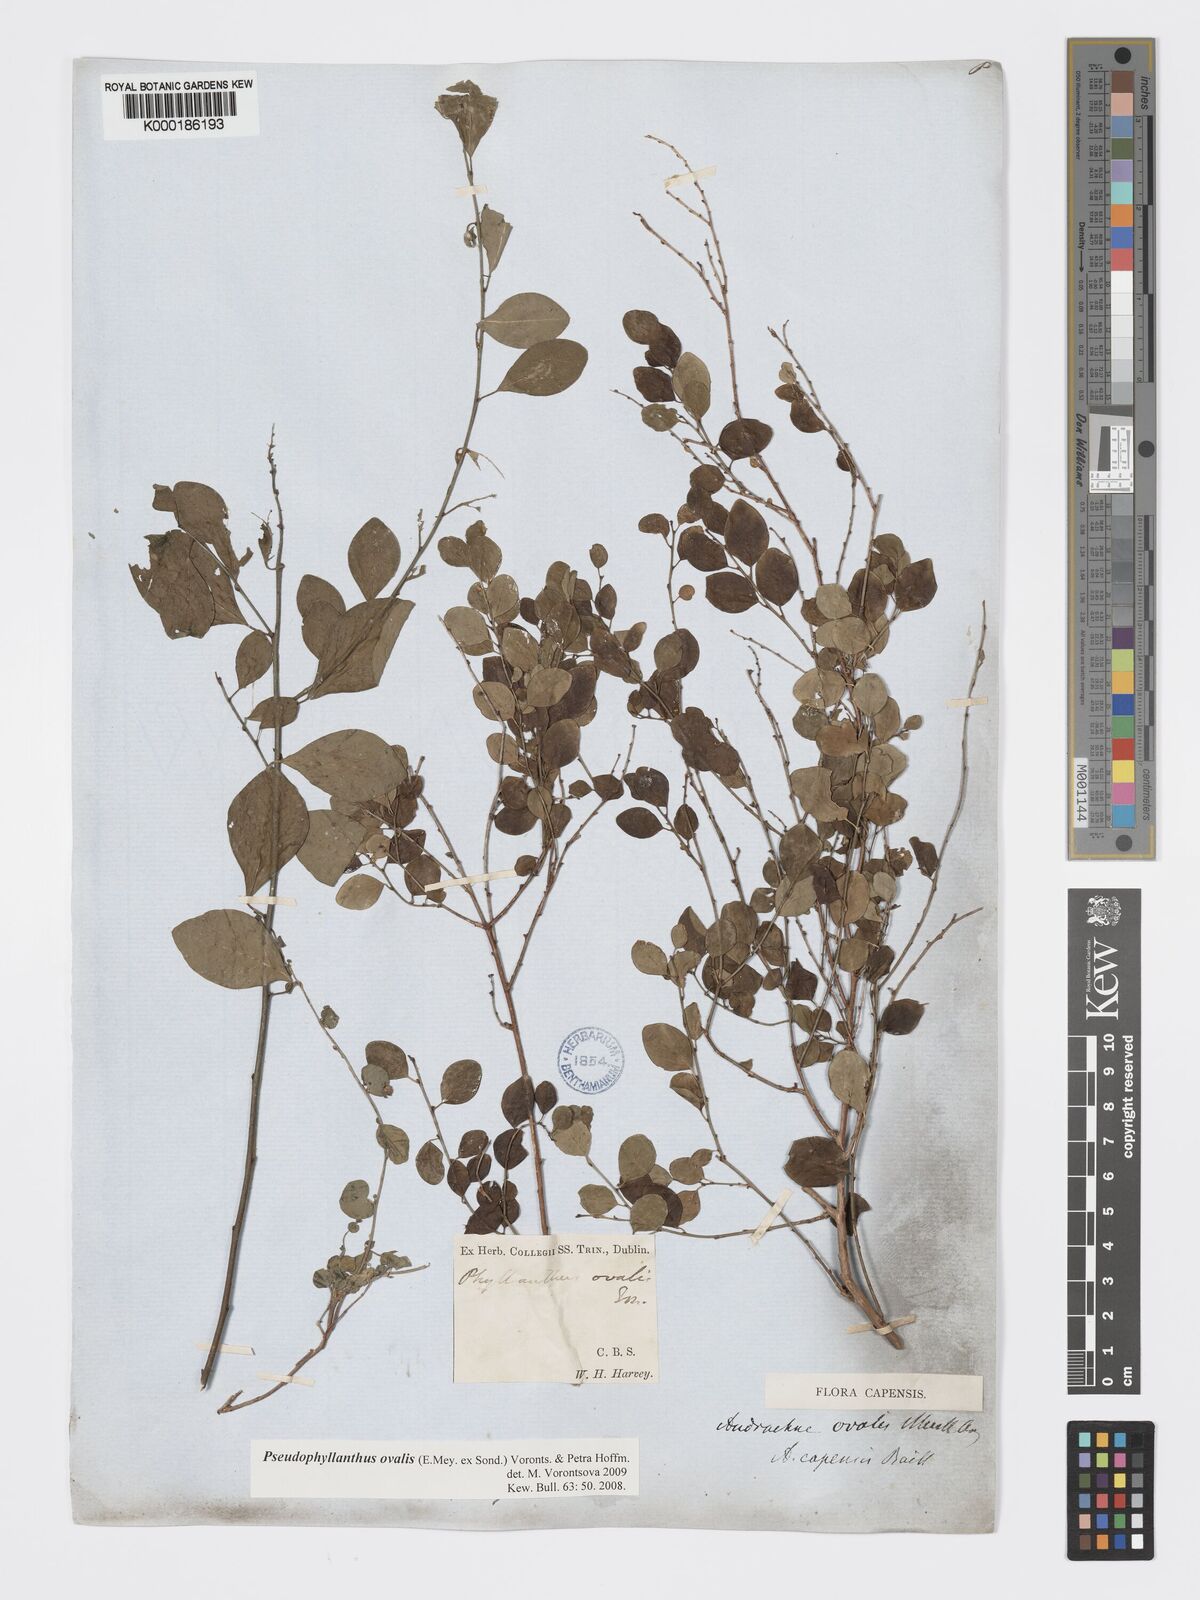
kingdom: Plantae
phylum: Tracheophyta
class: Magnoliopsida
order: Malpighiales
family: Phyllanthaceae
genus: Pseudophyllanthus
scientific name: Pseudophyllanthus ovalis
